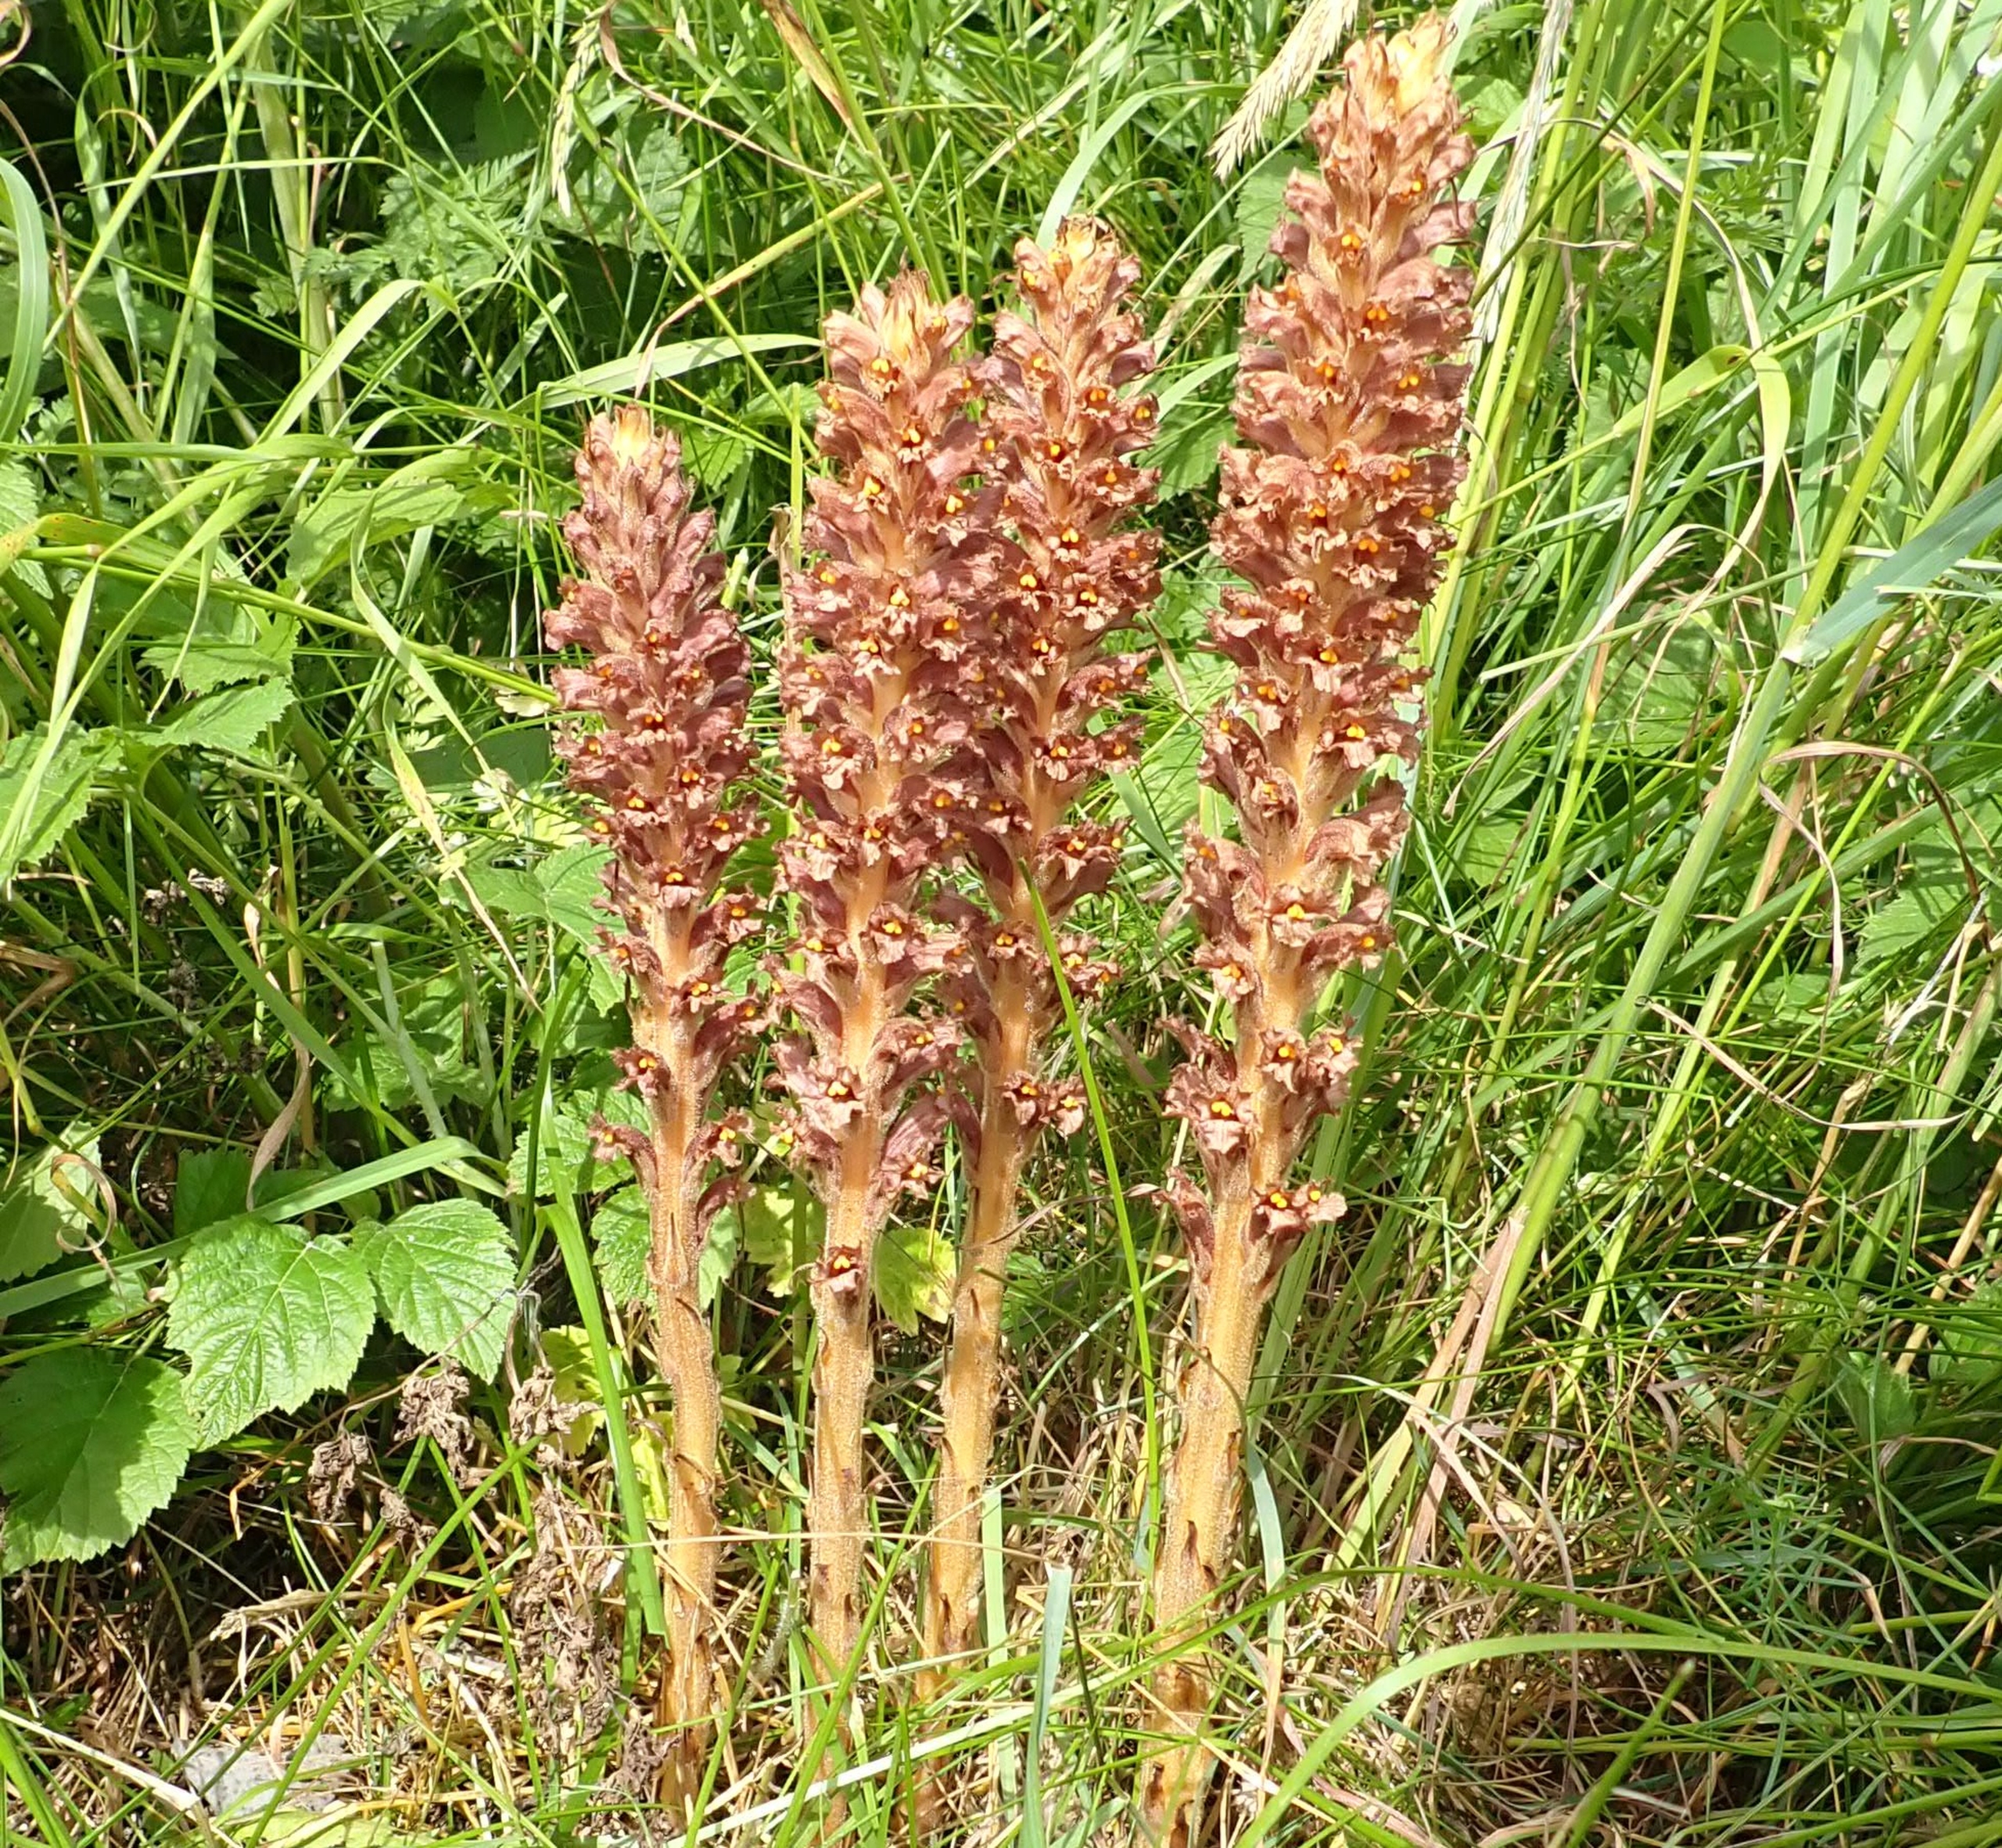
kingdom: Plantae
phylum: Tracheophyta
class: Magnoliopsida
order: Lamiales
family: Orobanchaceae
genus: Orobanche
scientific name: Orobanche elatior
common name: Stor gyvelkvæler
